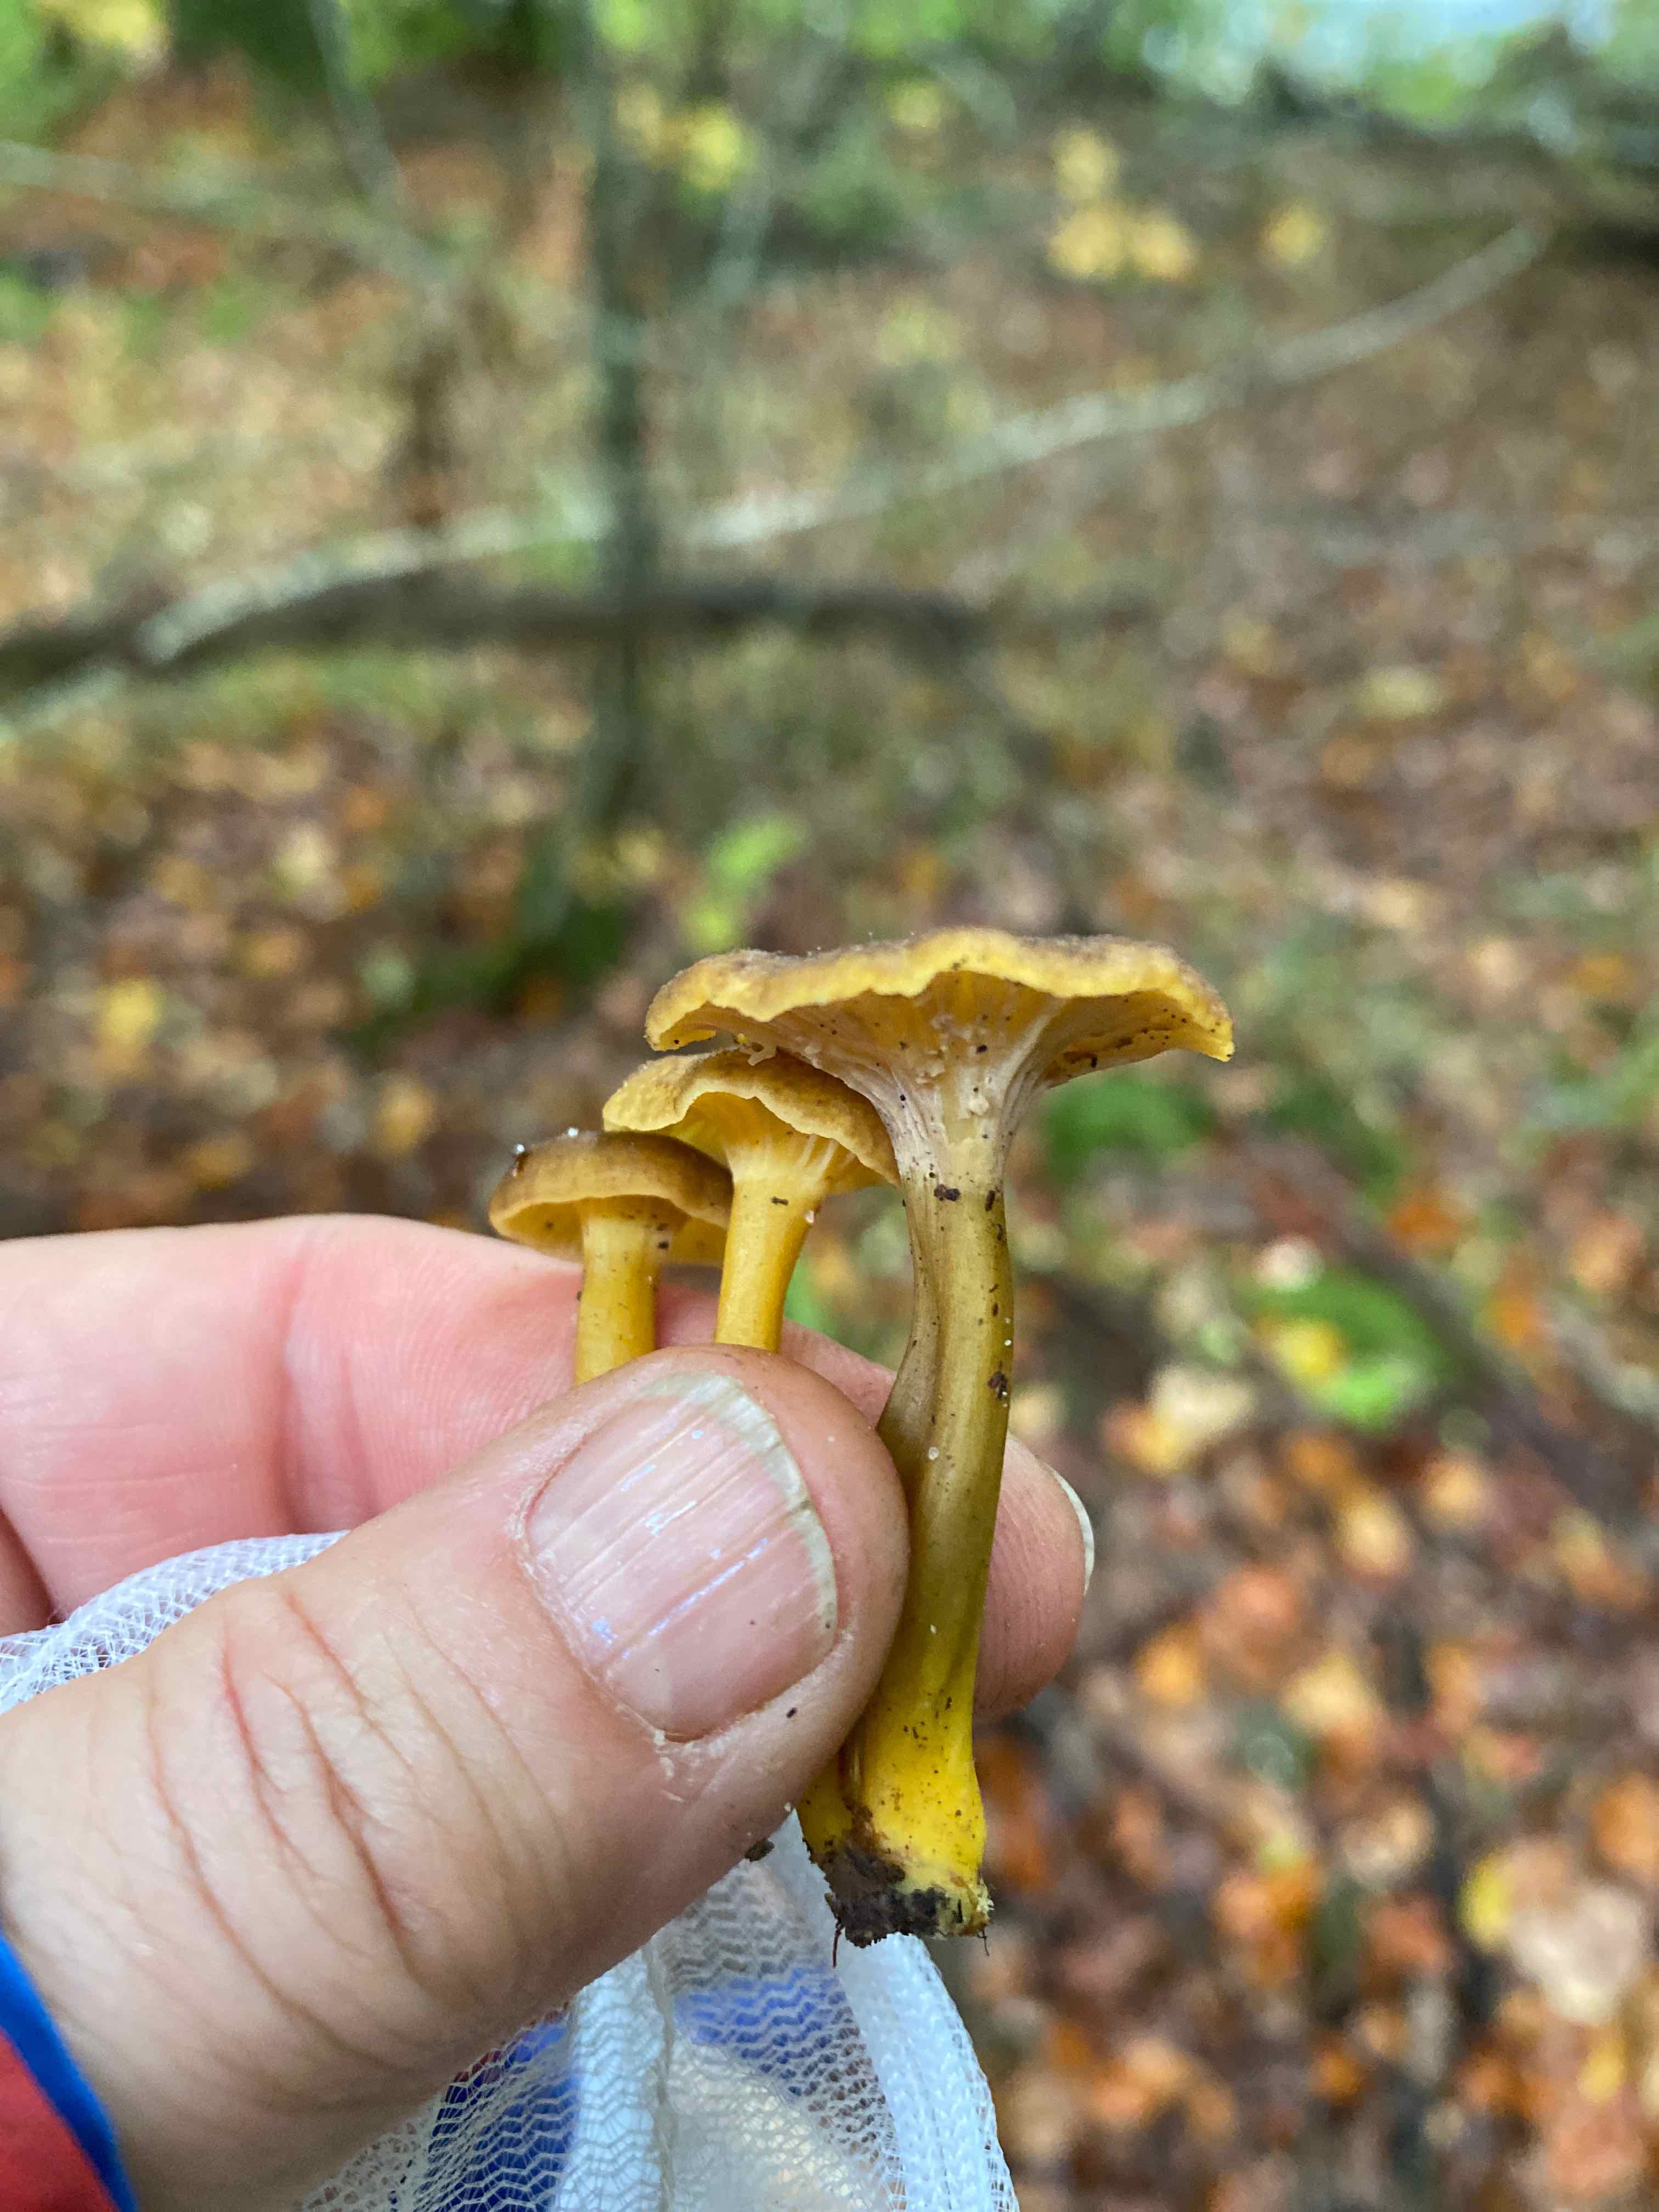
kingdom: Fungi
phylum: Basidiomycota
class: Agaricomycetes
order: Cantharellales
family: Hydnaceae
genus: Craterellus
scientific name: Craterellus tubaeformis
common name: tragt-kantarel
